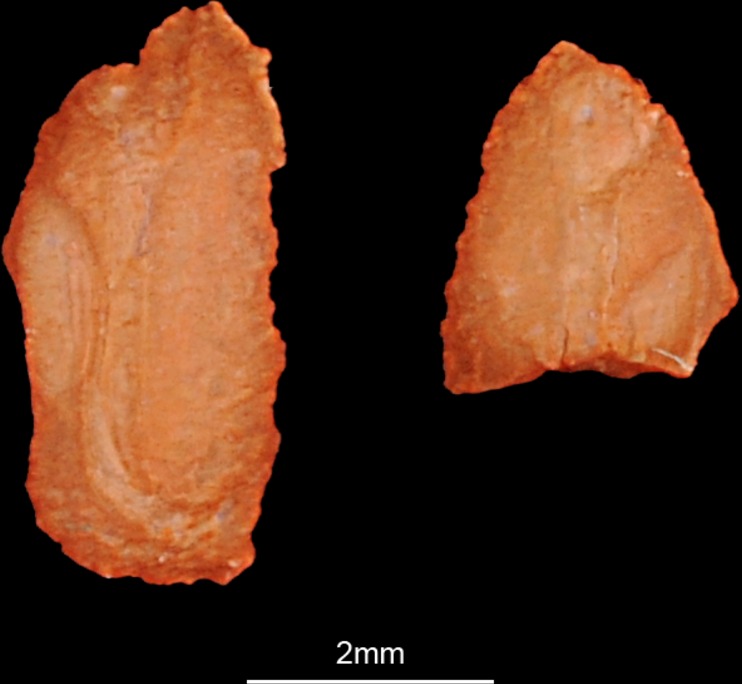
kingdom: Animalia
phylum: Chordata
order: Mugiliformes
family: Mugilidae
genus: Planiliza
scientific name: Planiliza abu
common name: Abu mullet
